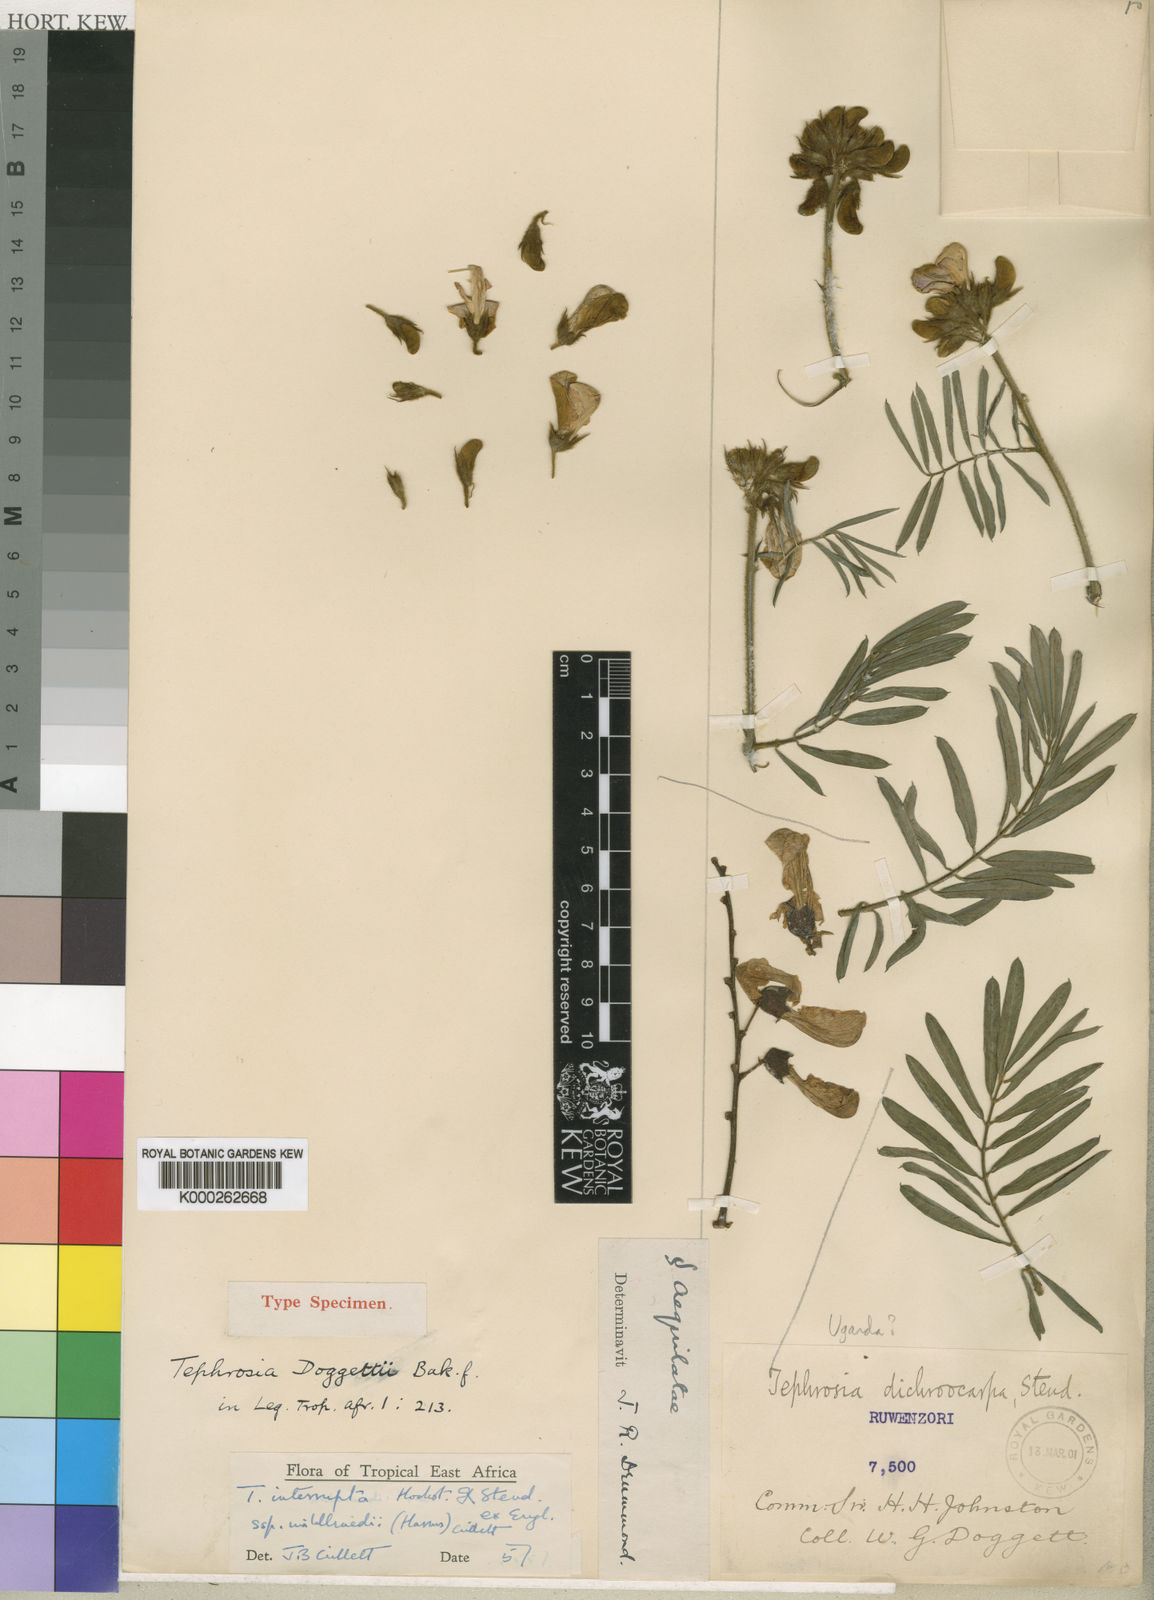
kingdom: Plantae
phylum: Tracheophyta
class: Magnoliopsida
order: Fabales
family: Fabaceae
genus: Tephrosia
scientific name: Tephrosia interrupta
